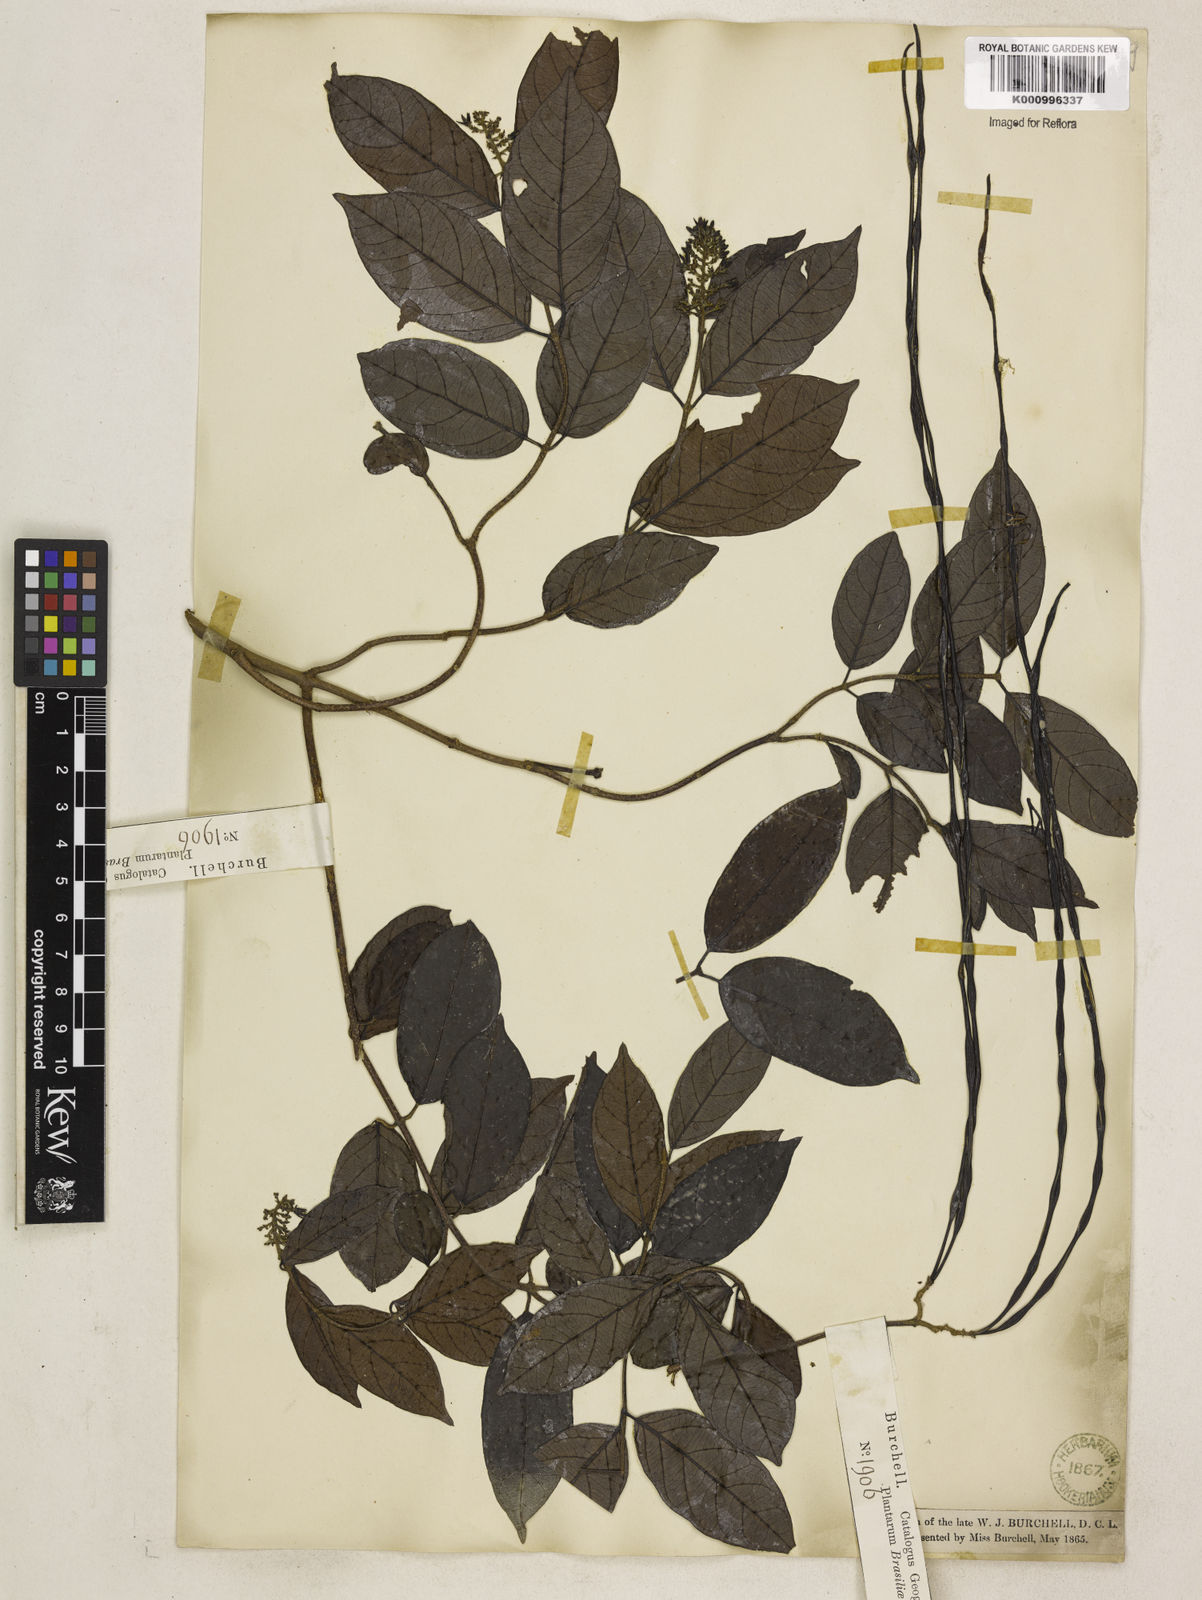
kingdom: Plantae
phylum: Tracheophyta
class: Magnoliopsida
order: Gentianales
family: Apocynaceae
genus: Forsteronia
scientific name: Forsteronia leptocarpa
